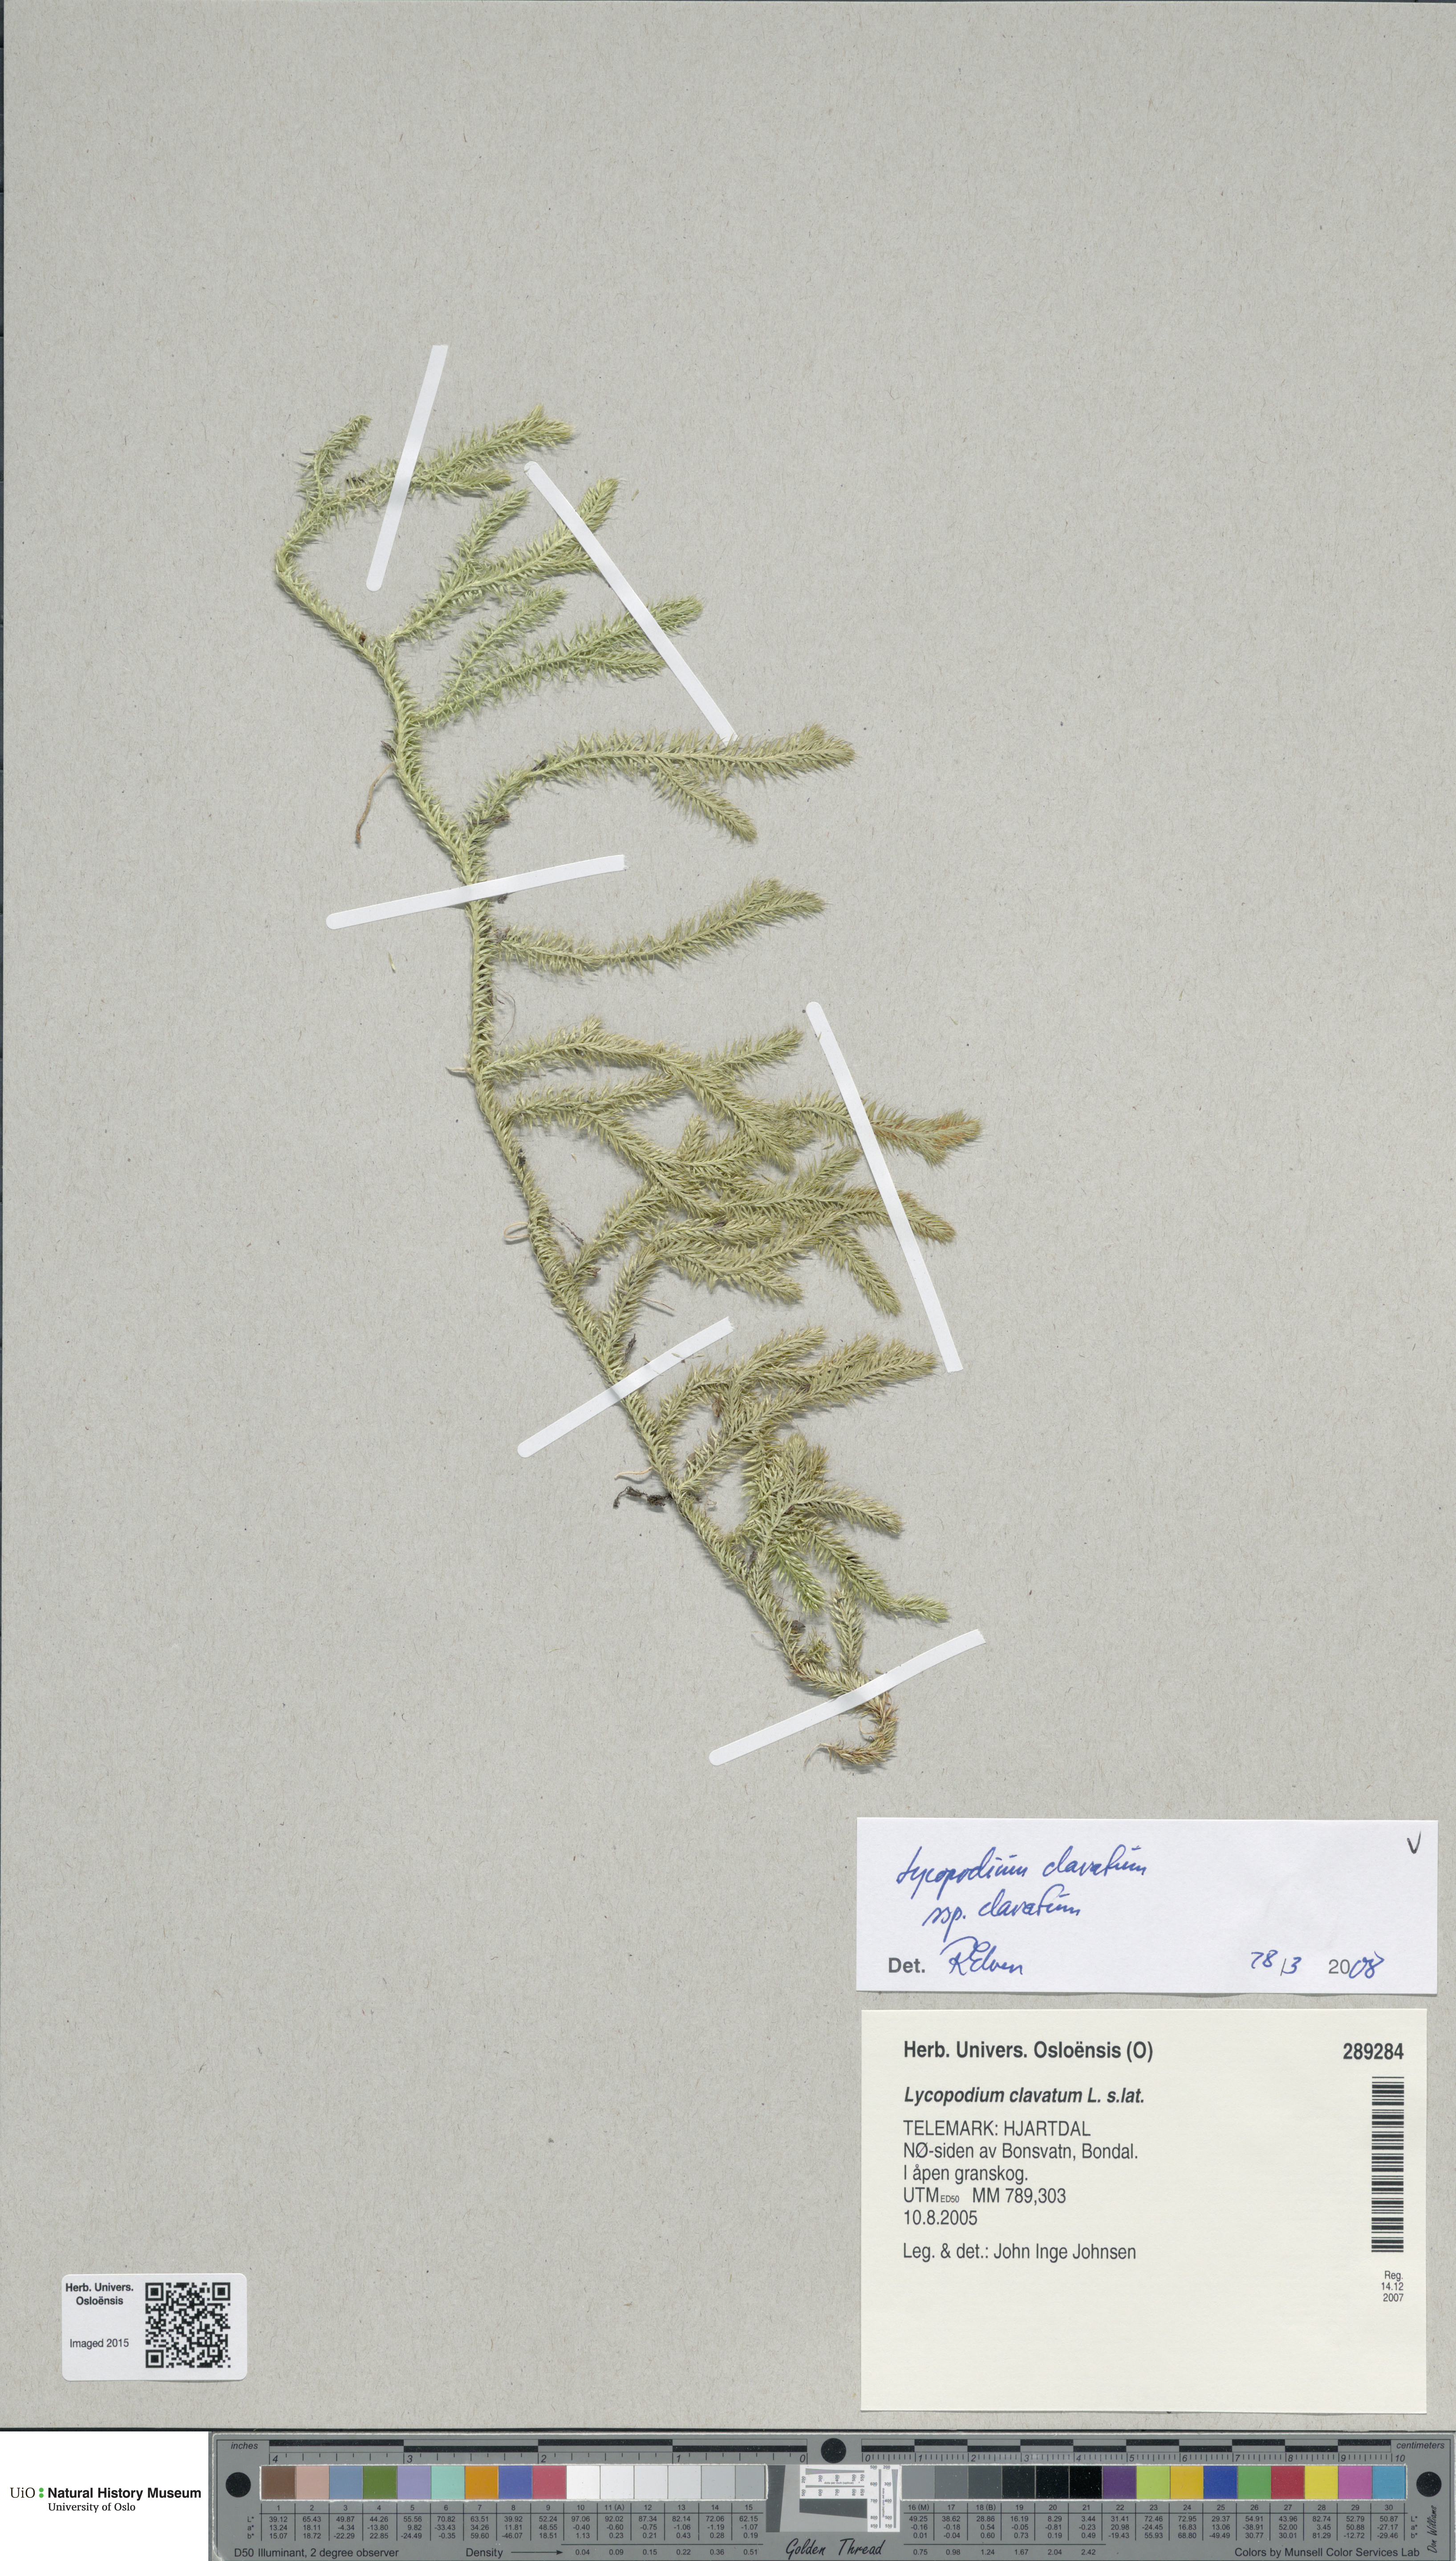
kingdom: Plantae
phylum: Tracheophyta
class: Lycopodiopsida
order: Lycopodiales
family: Lycopodiaceae
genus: Lycopodium
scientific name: Lycopodium clavatum
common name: Stag's-horn clubmoss
